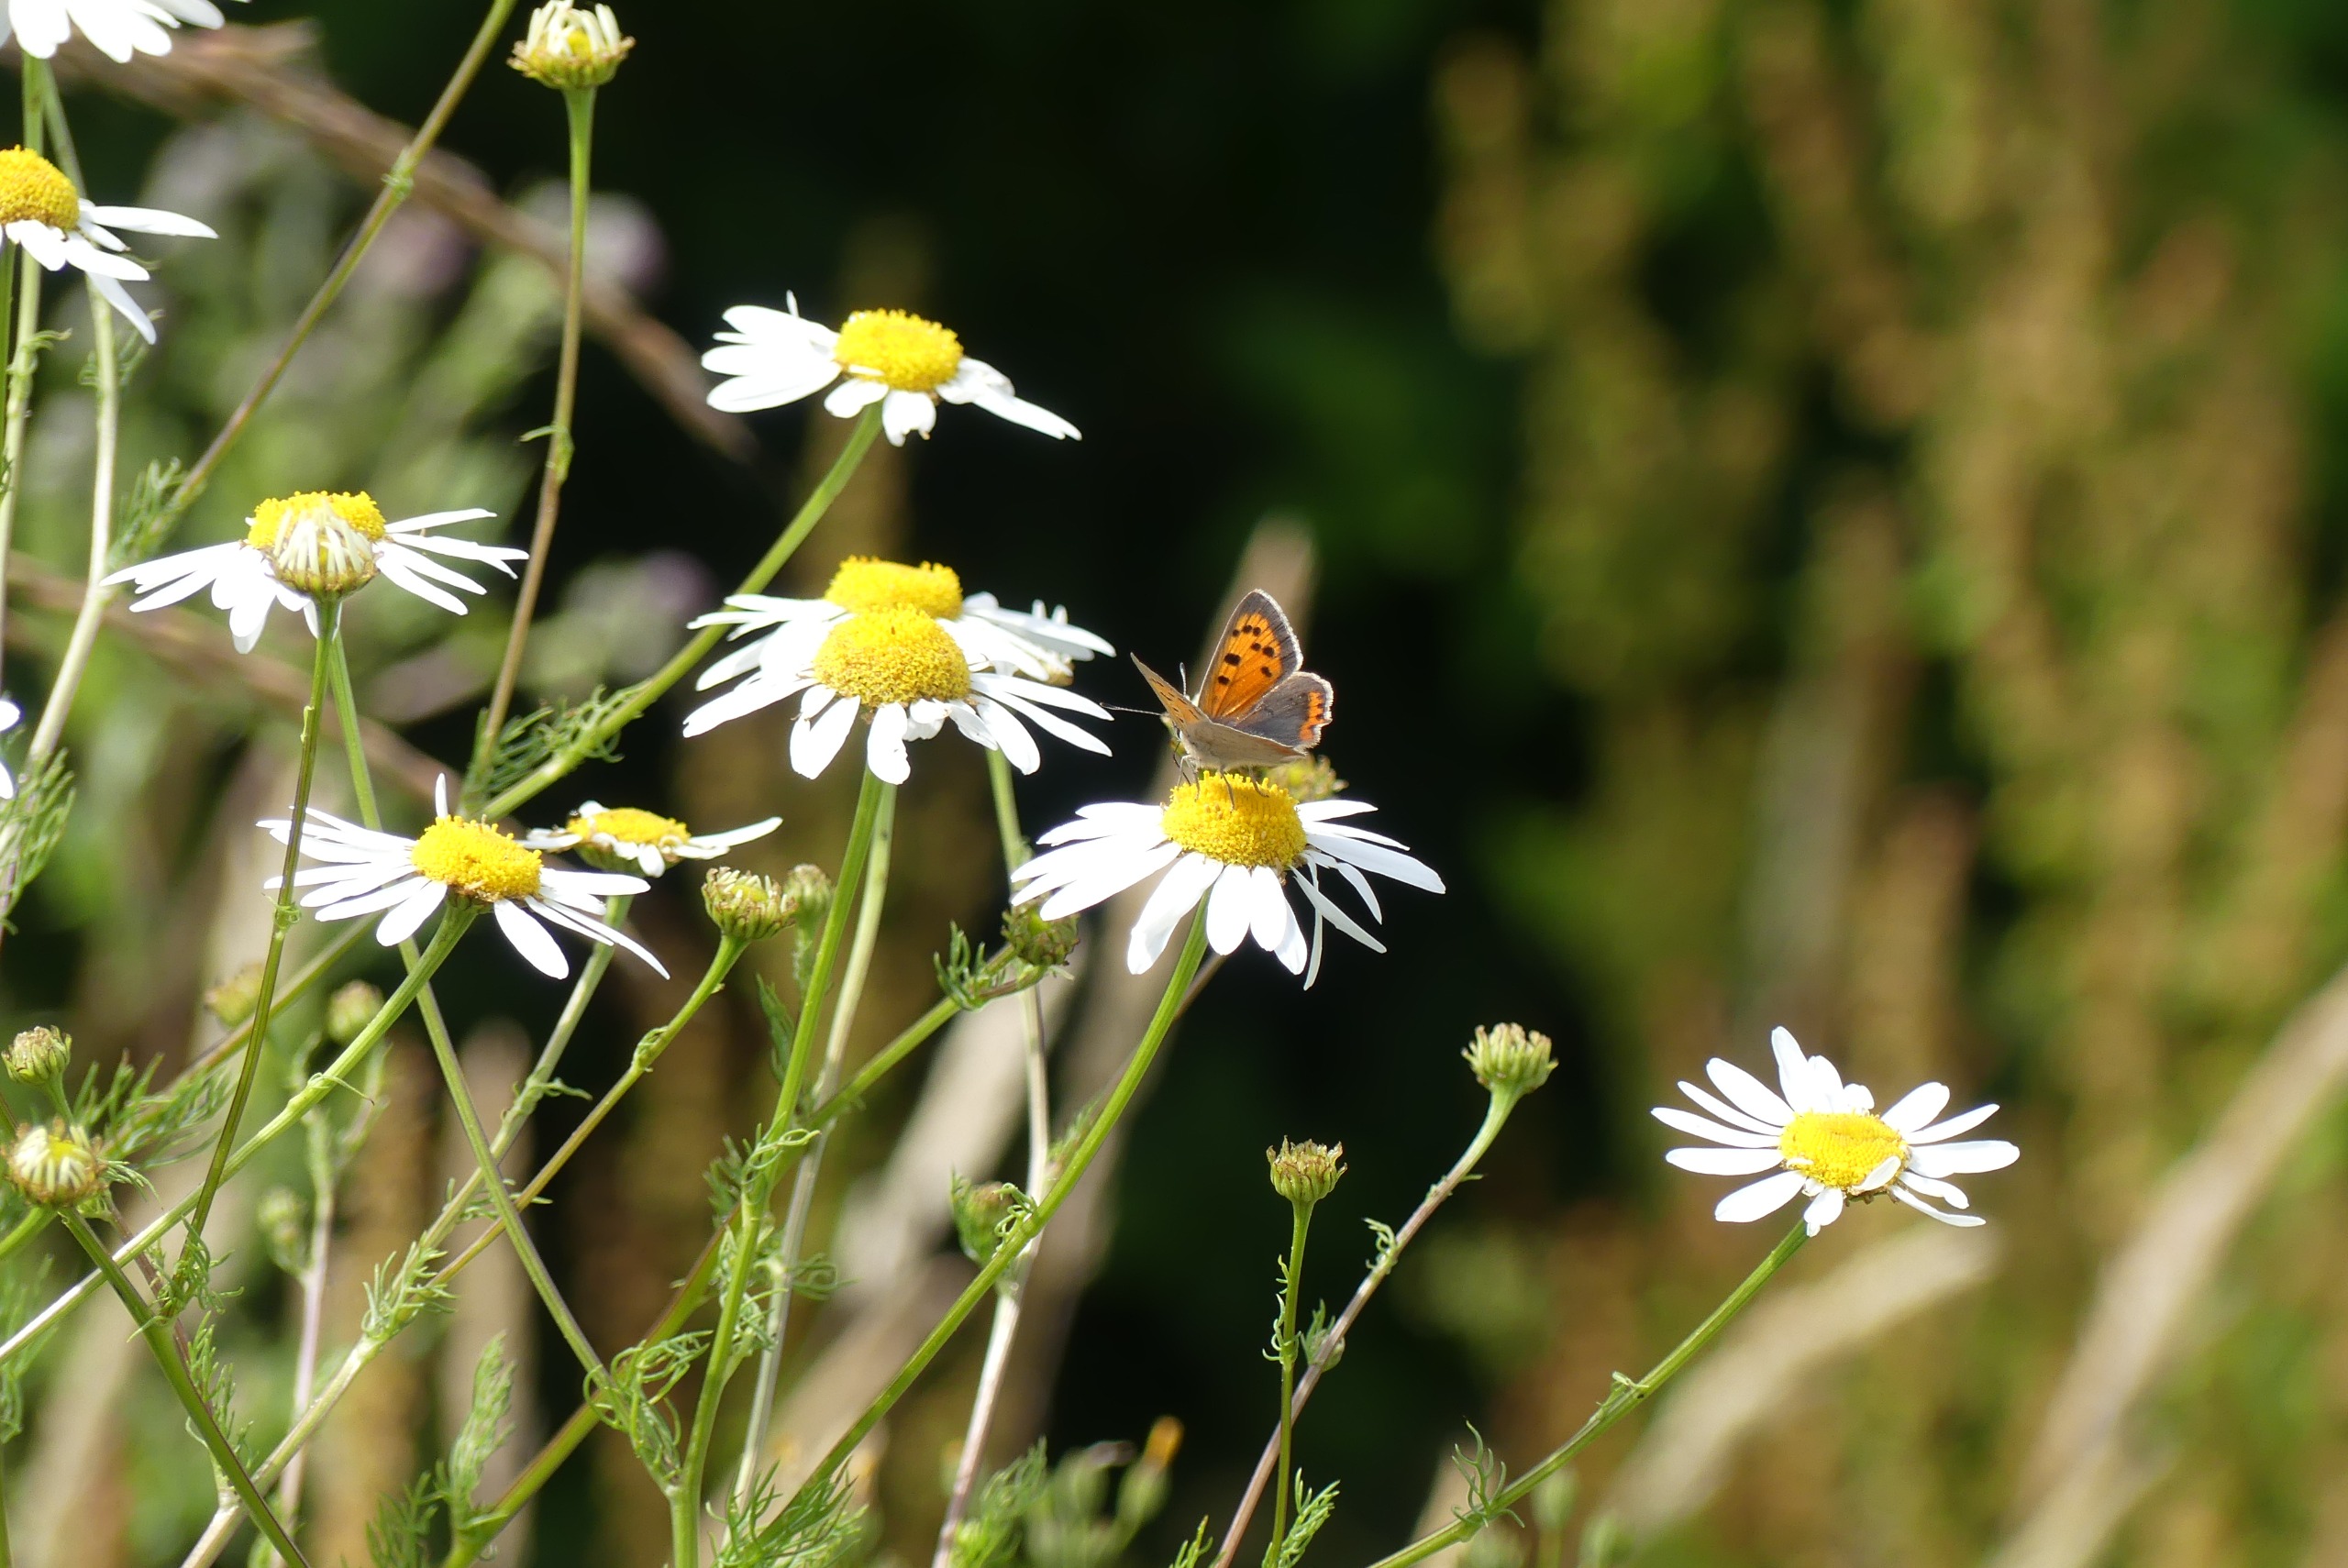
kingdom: Animalia
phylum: Arthropoda
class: Insecta
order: Lepidoptera
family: Lycaenidae
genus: Lycaena
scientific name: Lycaena phlaeas
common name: Lille ildfugl
